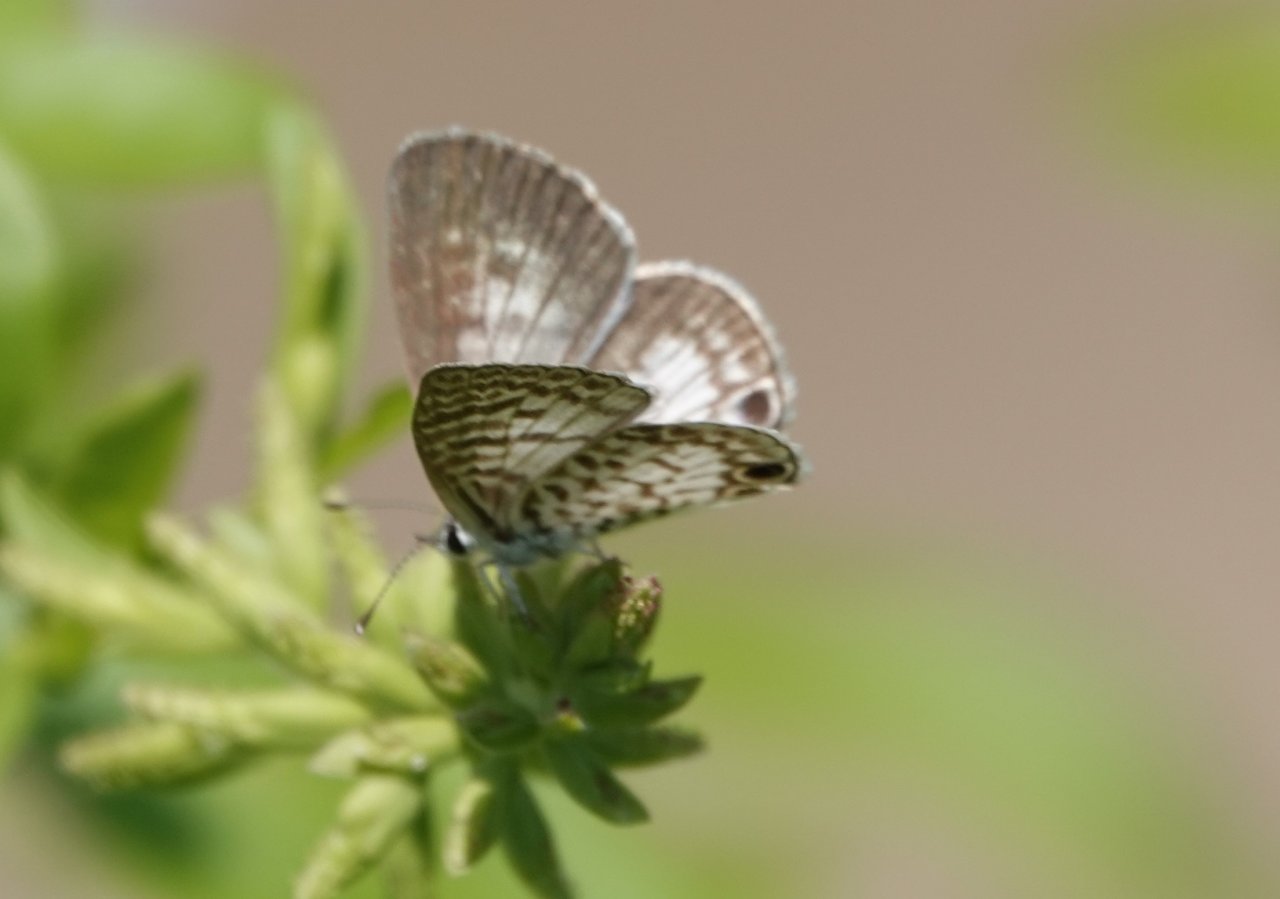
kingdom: Animalia
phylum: Arthropoda
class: Insecta
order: Lepidoptera
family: Lycaenidae
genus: Leptotes
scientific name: Leptotes cassius
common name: Cassius Blue
